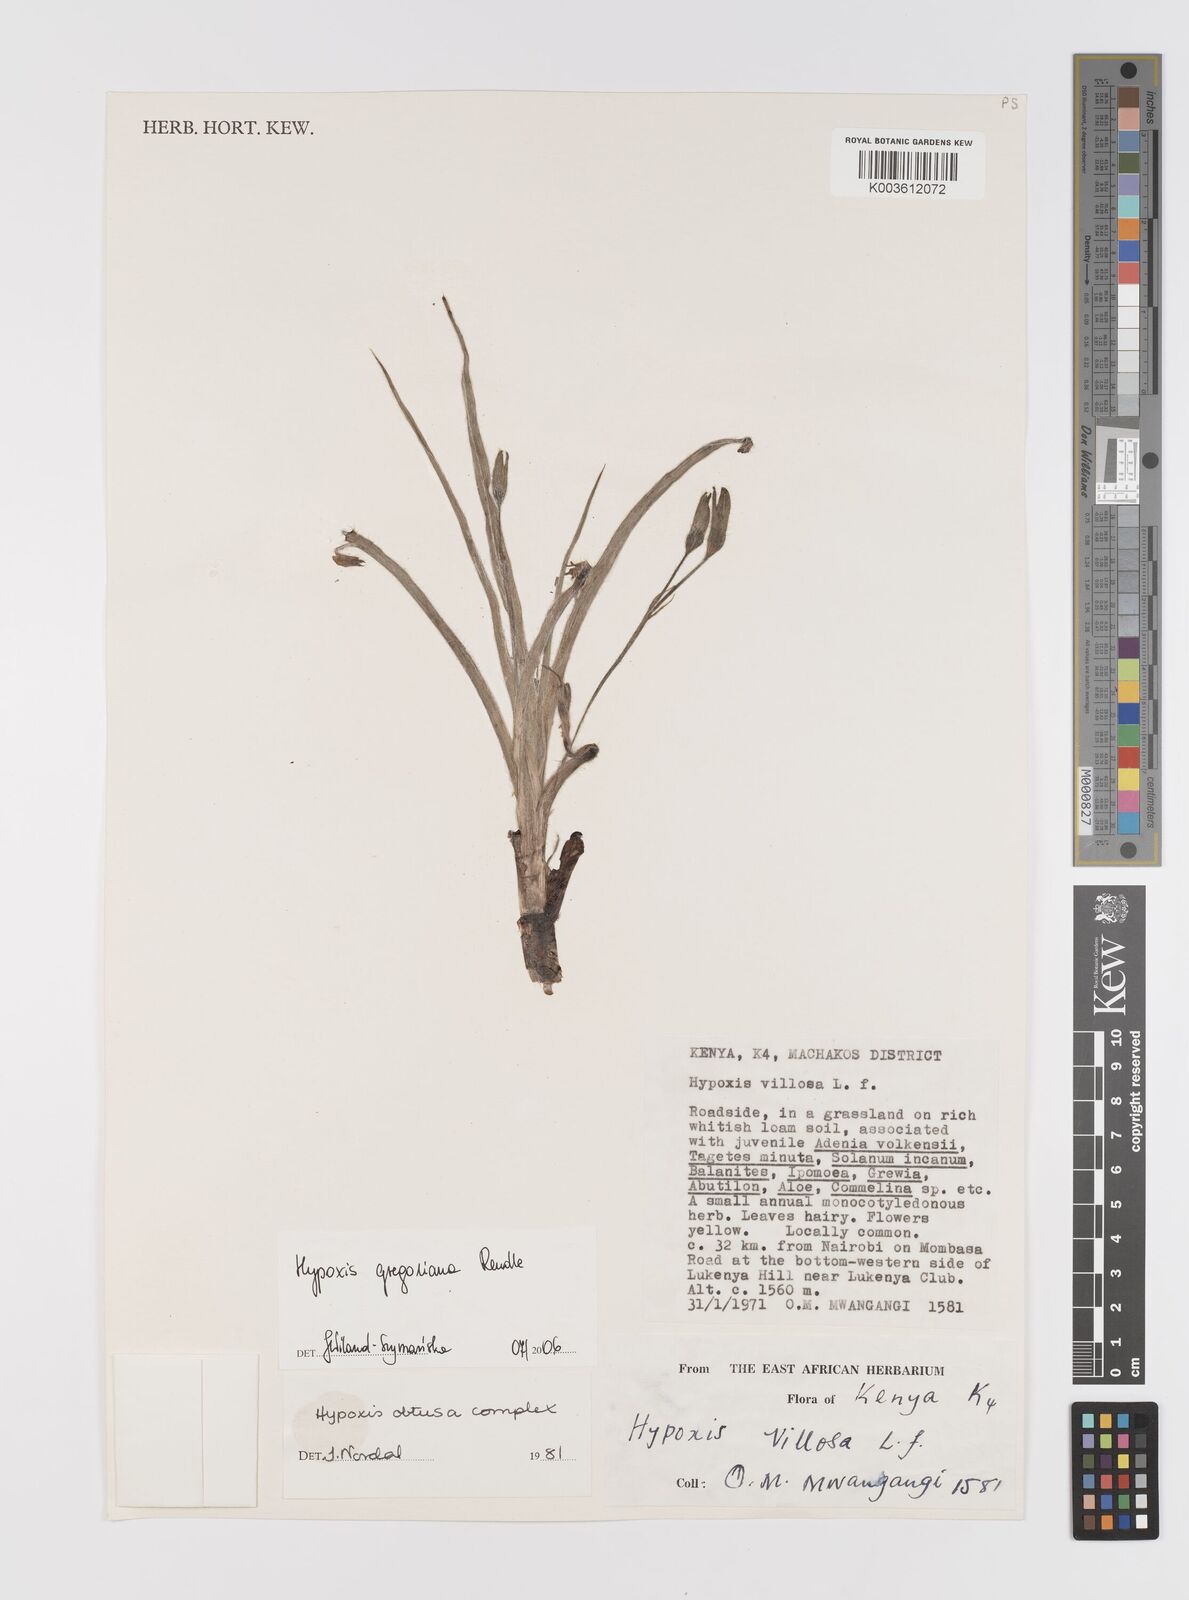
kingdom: Plantae
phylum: Tracheophyta
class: Liliopsida
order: Asparagales
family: Hypoxidaceae
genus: Hypoxis
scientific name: Hypoxis gregoriana
